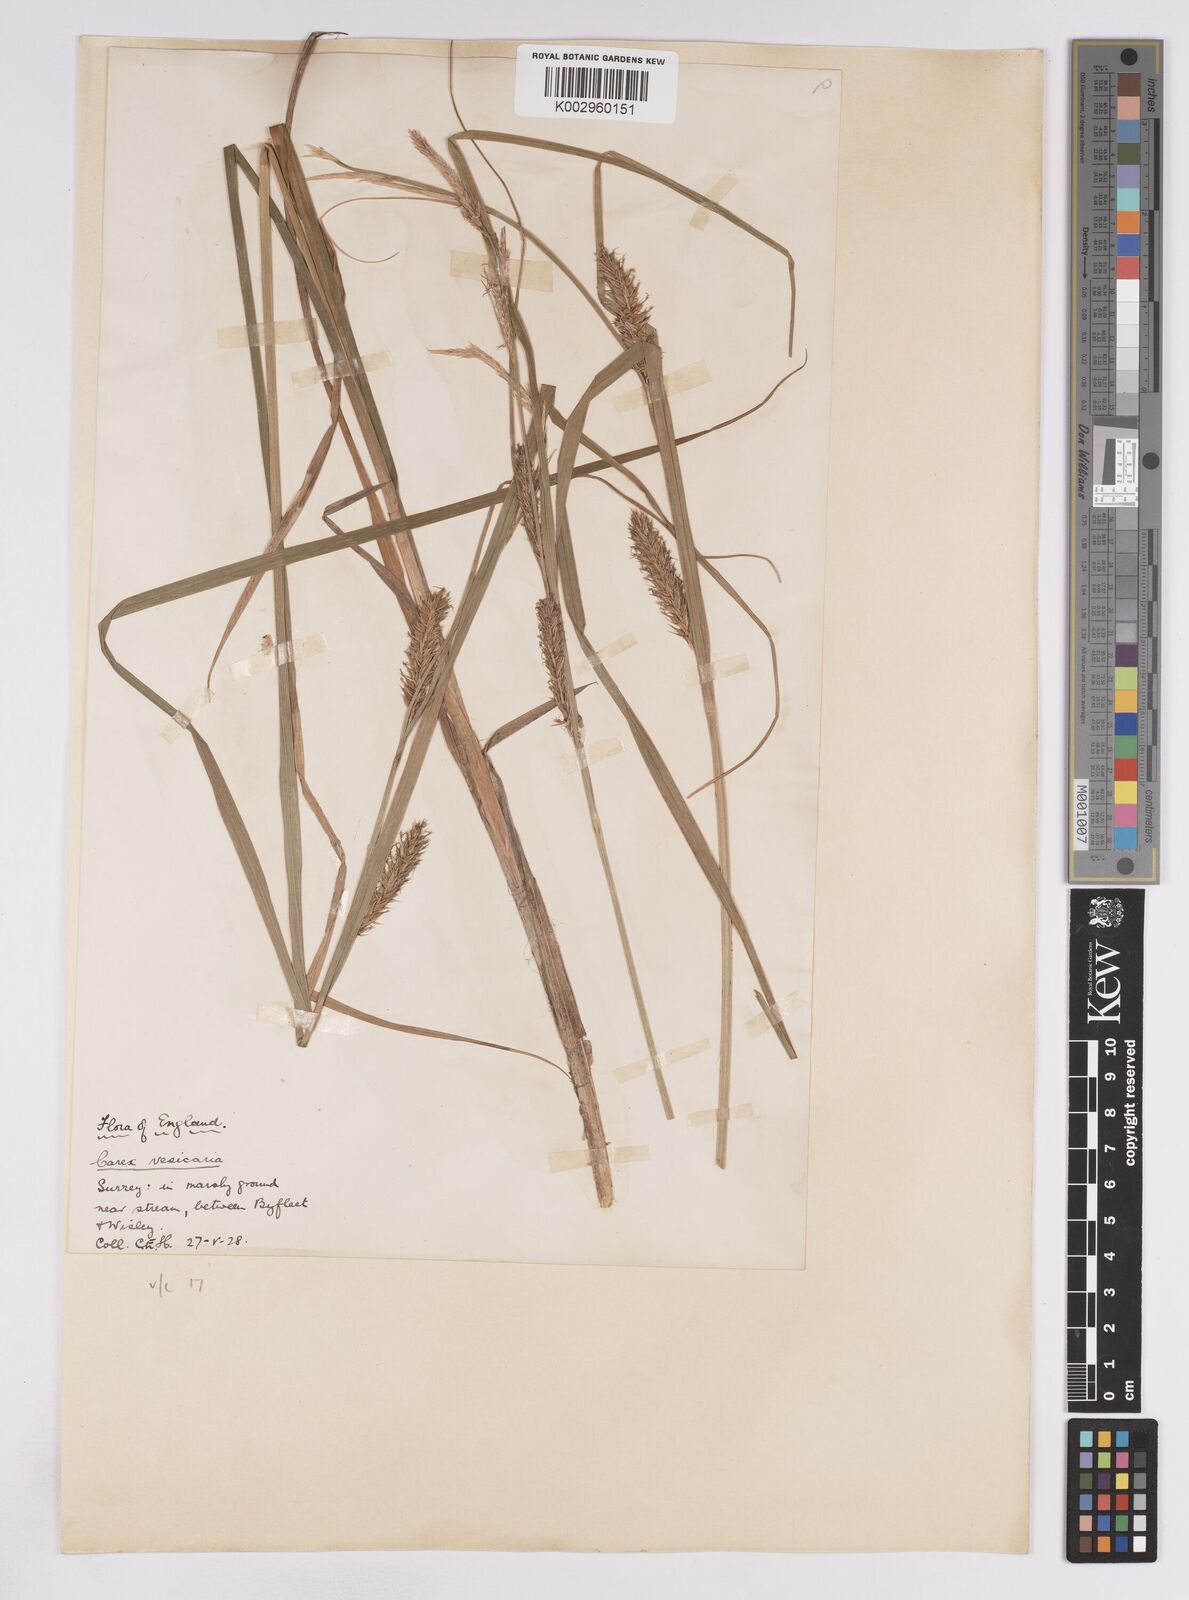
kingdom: Plantae
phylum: Tracheophyta
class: Liliopsida
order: Poales
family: Cyperaceae
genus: Carex
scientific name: Carex vesicaria
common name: Bladder-sedge
